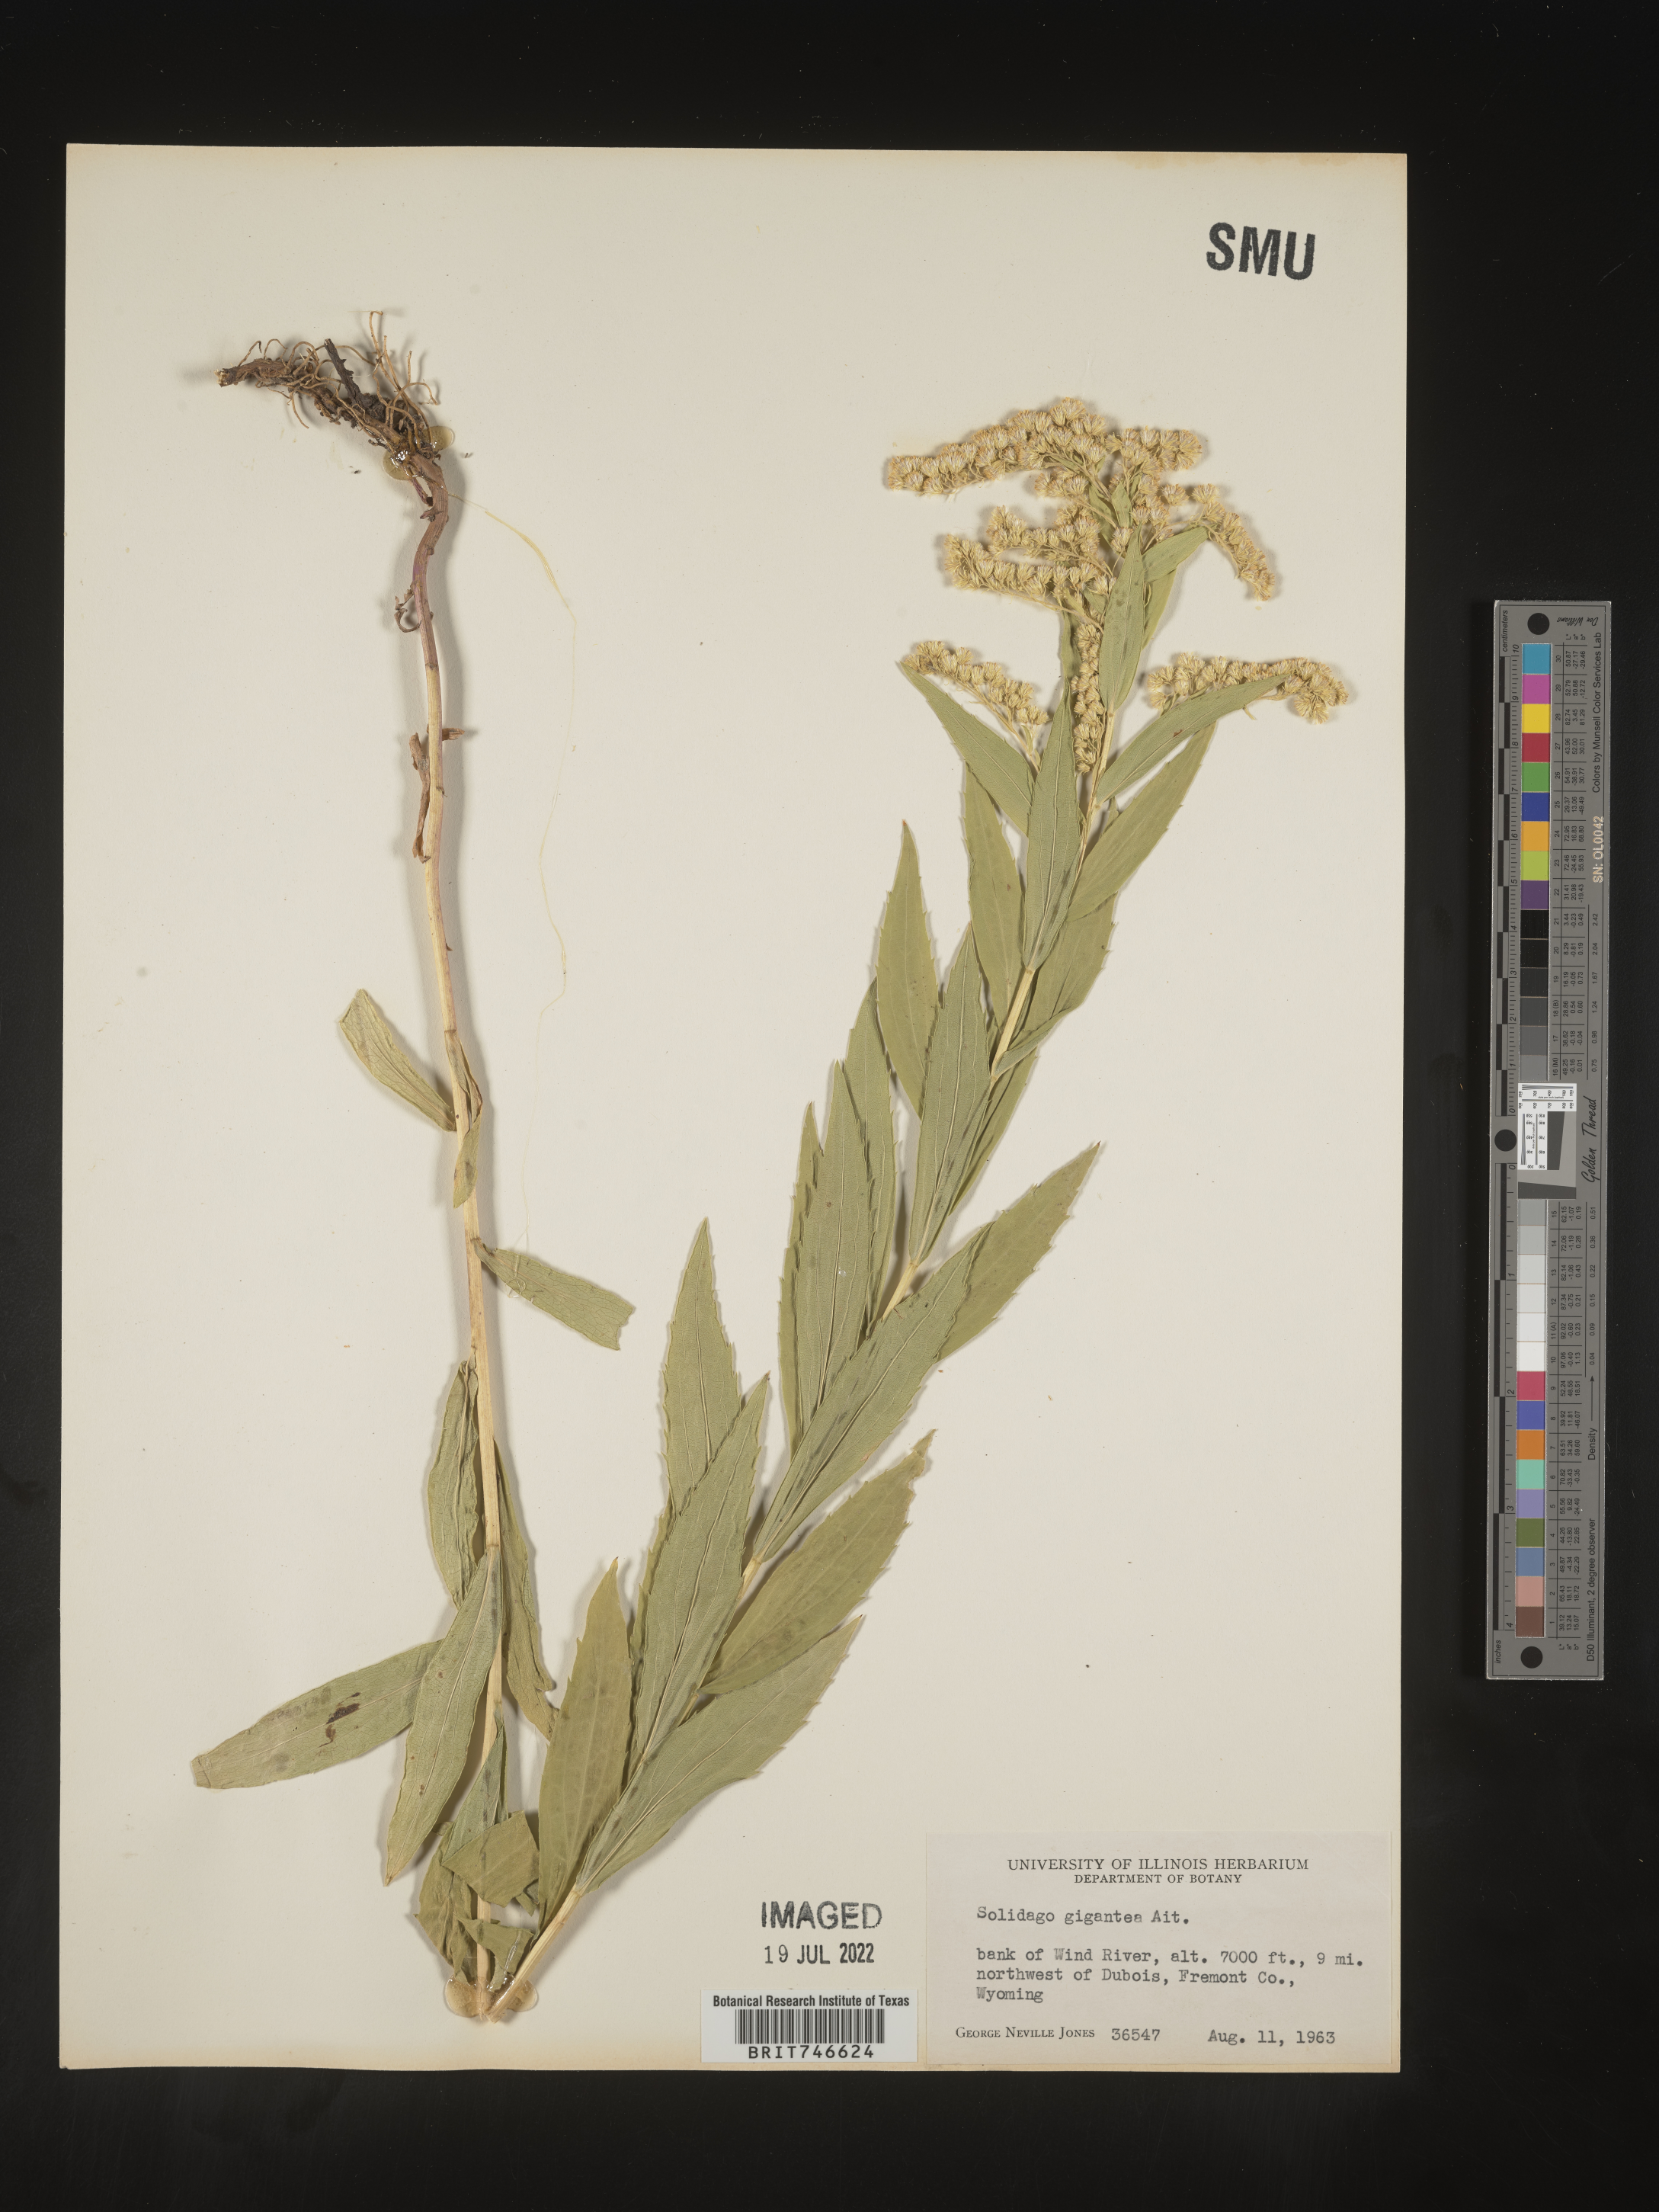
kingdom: Plantae
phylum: Tracheophyta
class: Magnoliopsida
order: Asterales
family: Asteraceae
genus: Solidago
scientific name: Solidago gigantea
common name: Giant goldenrod
